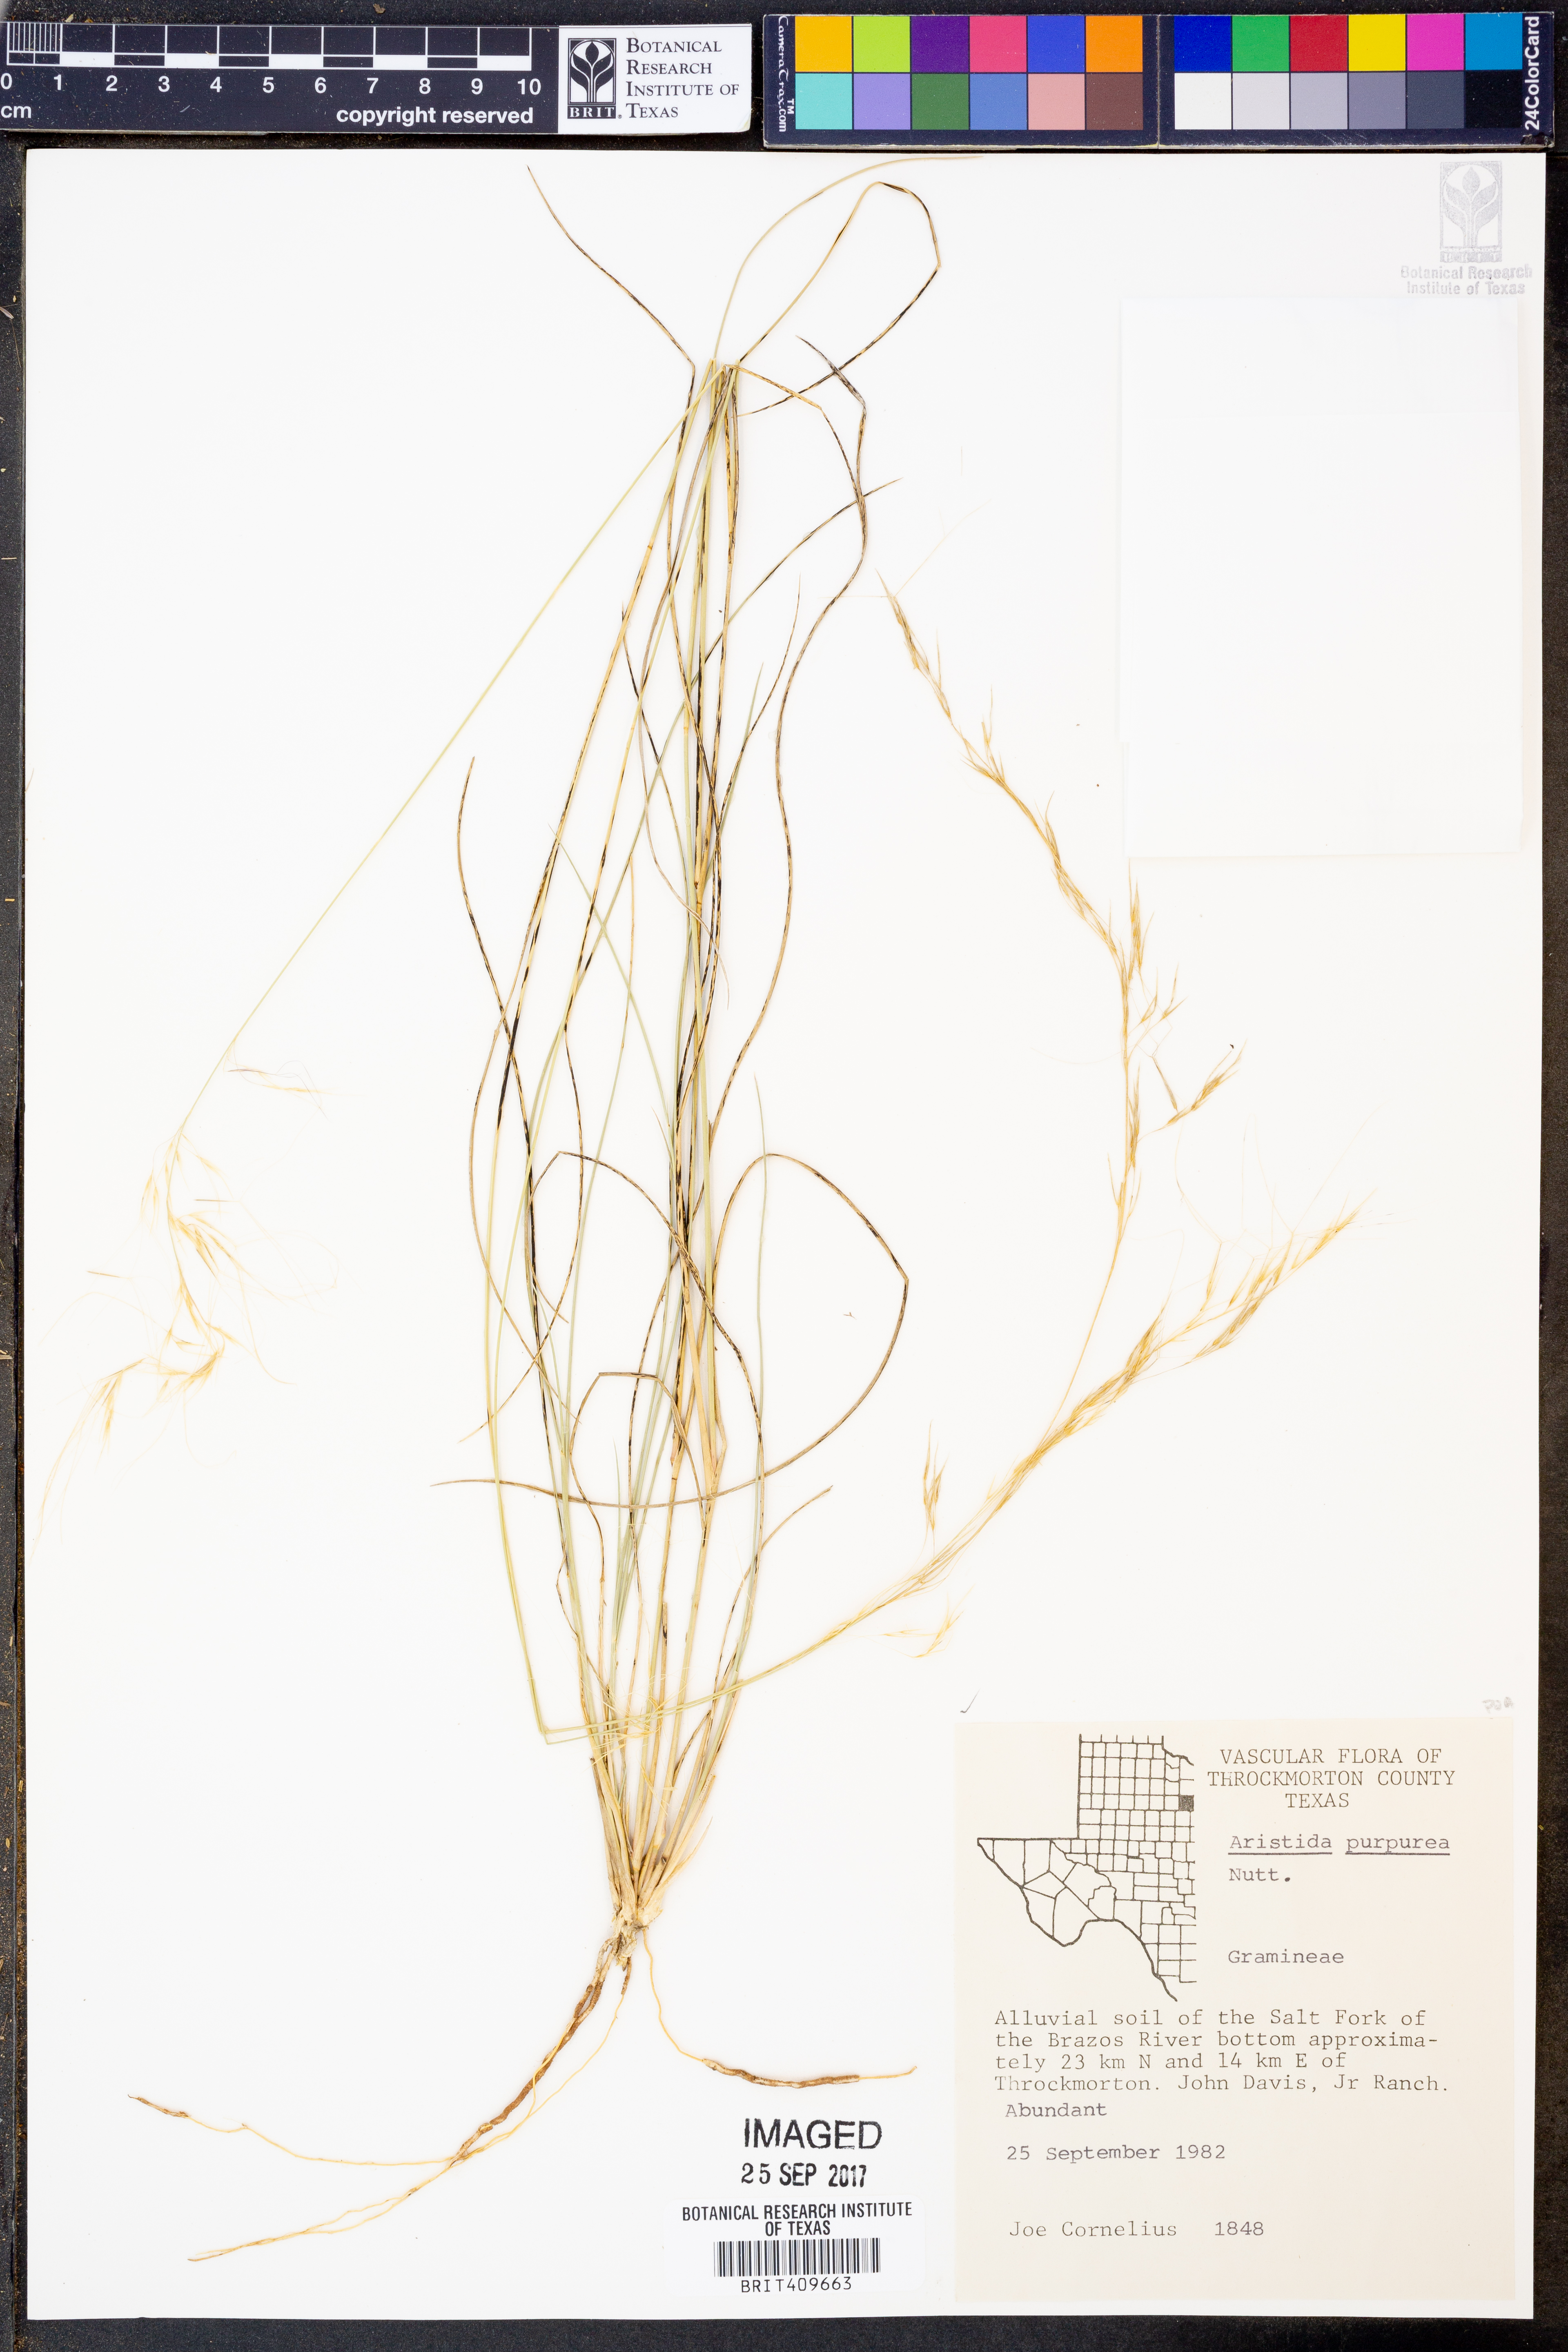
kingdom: Plantae
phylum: Tracheophyta
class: Liliopsida
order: Poales
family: Poaceae
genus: Aristida
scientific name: Aristida purpurea
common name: Purple threeawn
